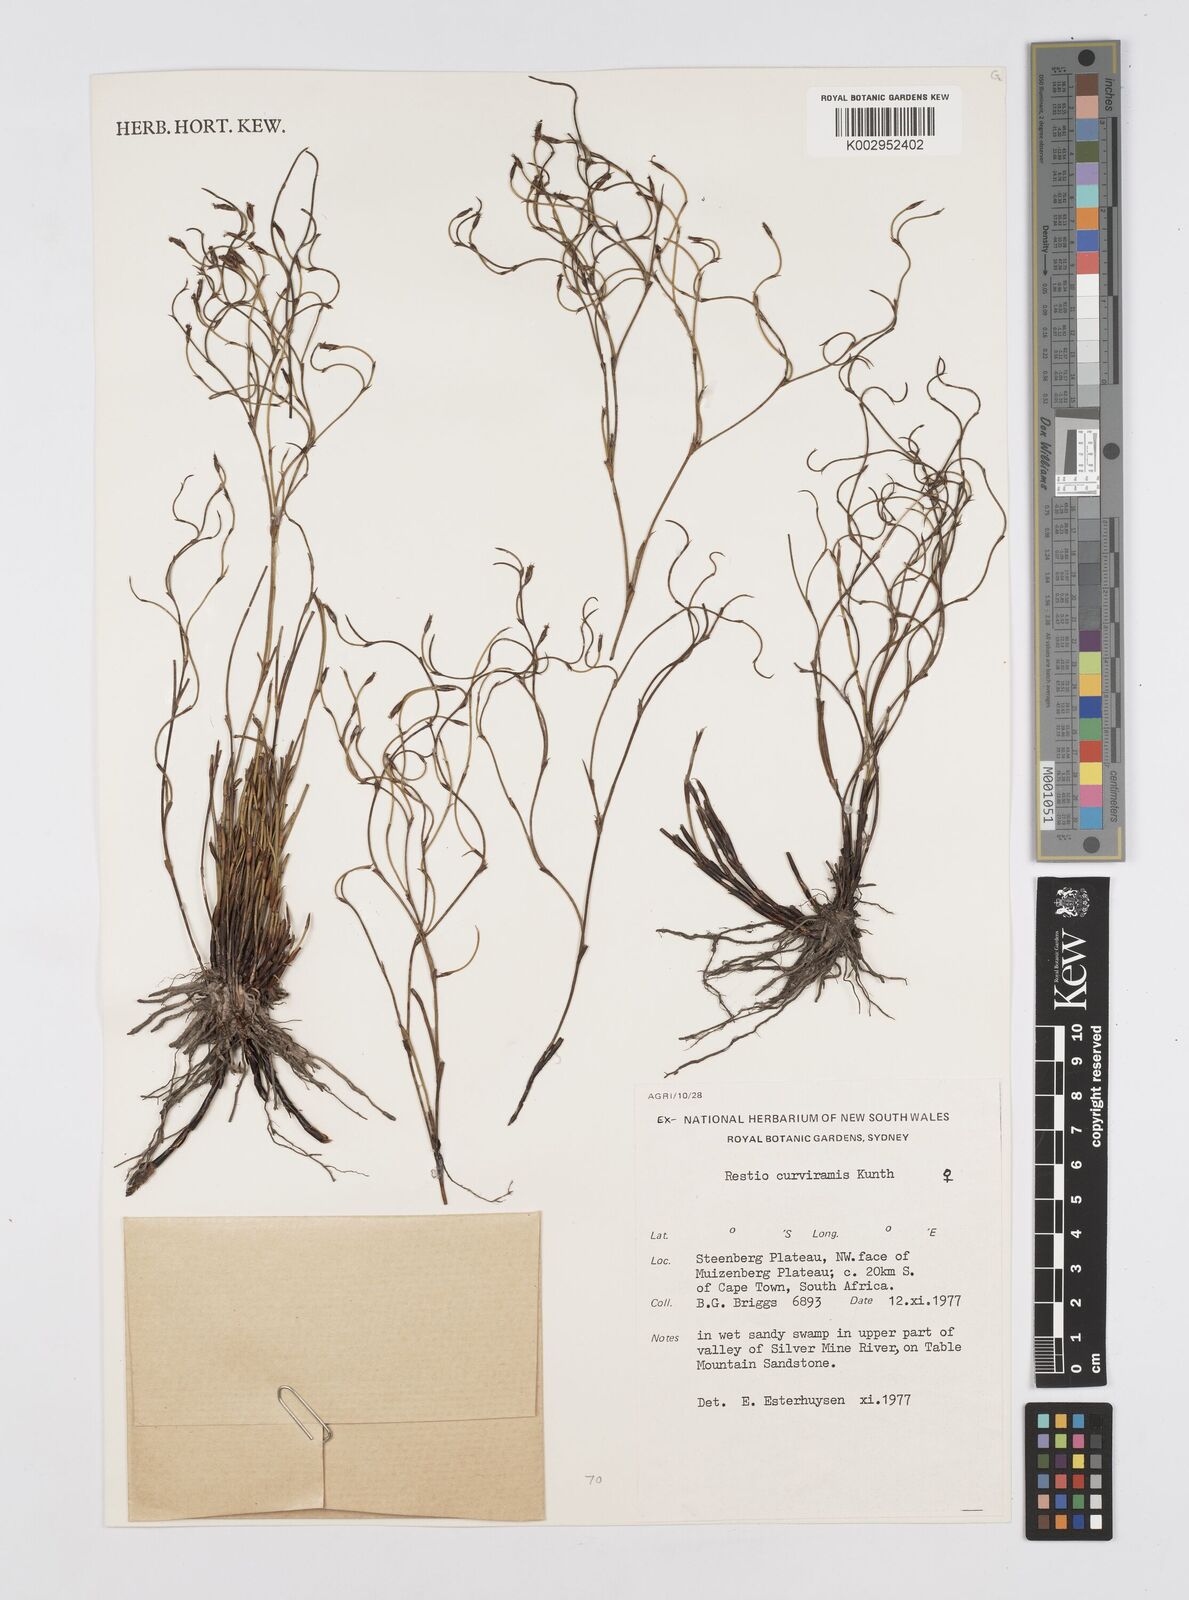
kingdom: Plantae
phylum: Tracheophyta
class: Liliopsida
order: Poales
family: Restionaceae
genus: Restio
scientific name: Restio curviramis
